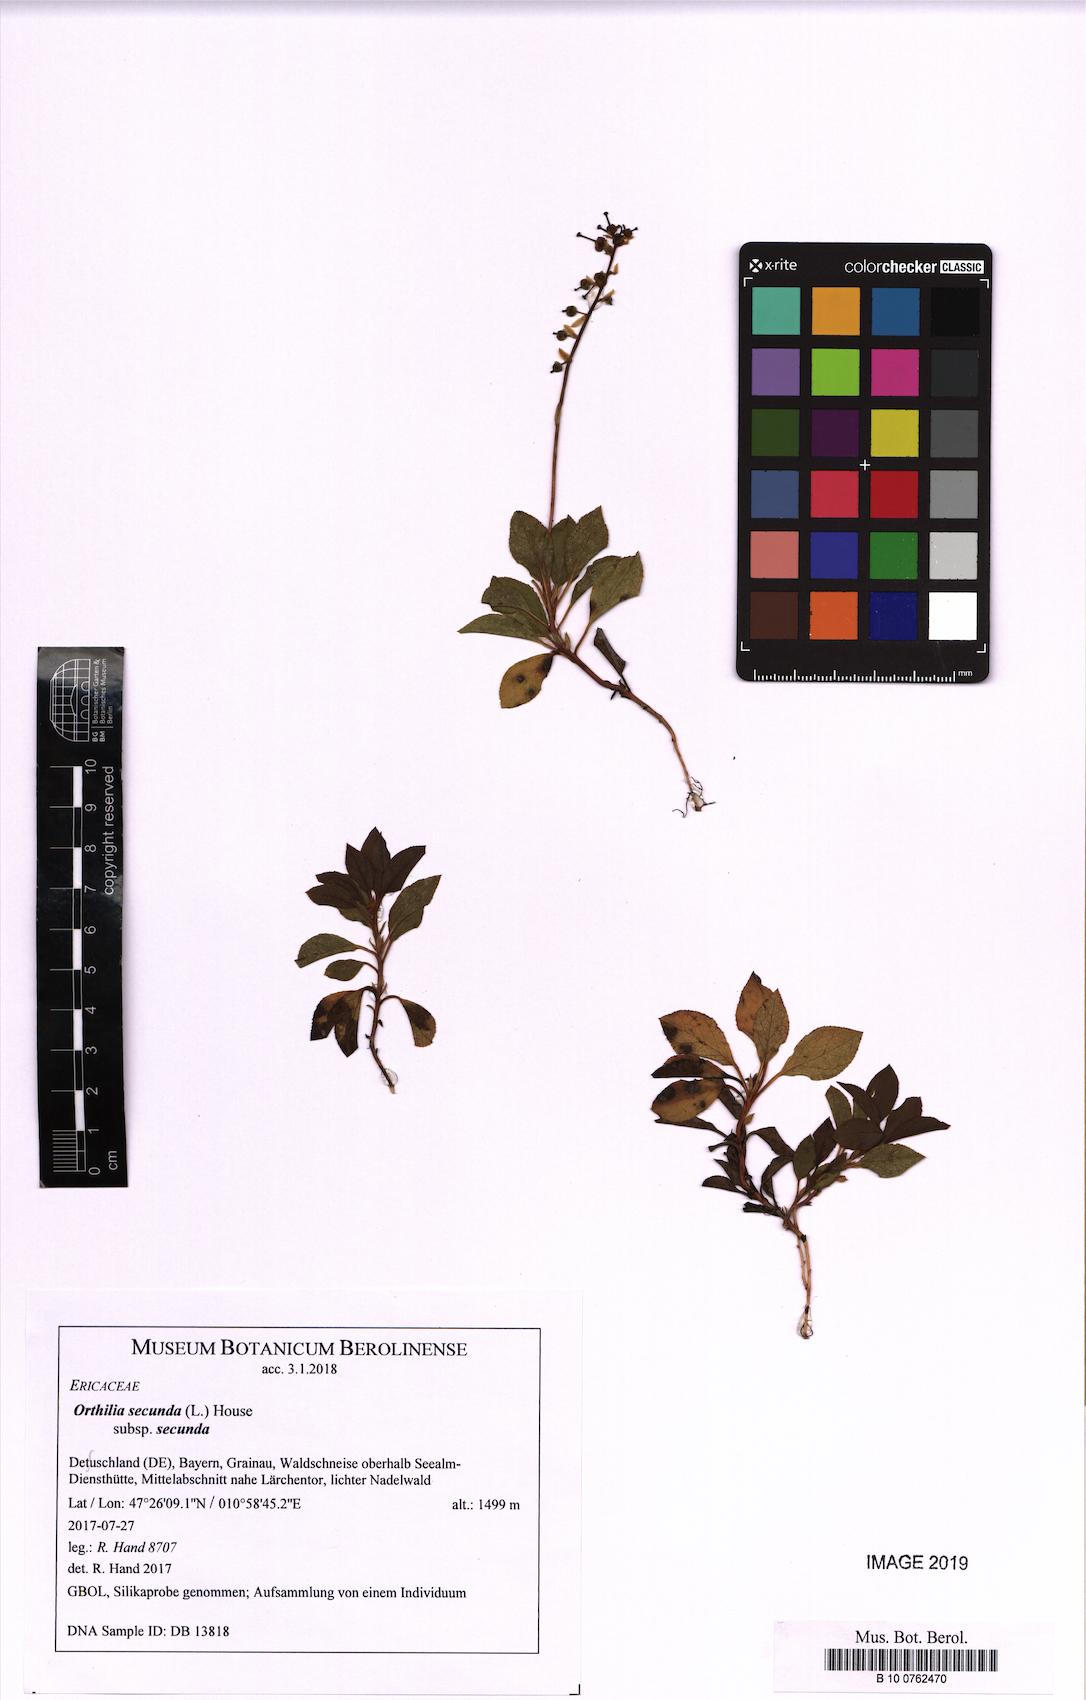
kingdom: Plantae
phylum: Tracheophyta
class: Magnoliopsida
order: Ericales
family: Ericaceae
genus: Orthilia
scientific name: Orthilia secunda
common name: One-sided orthilia
